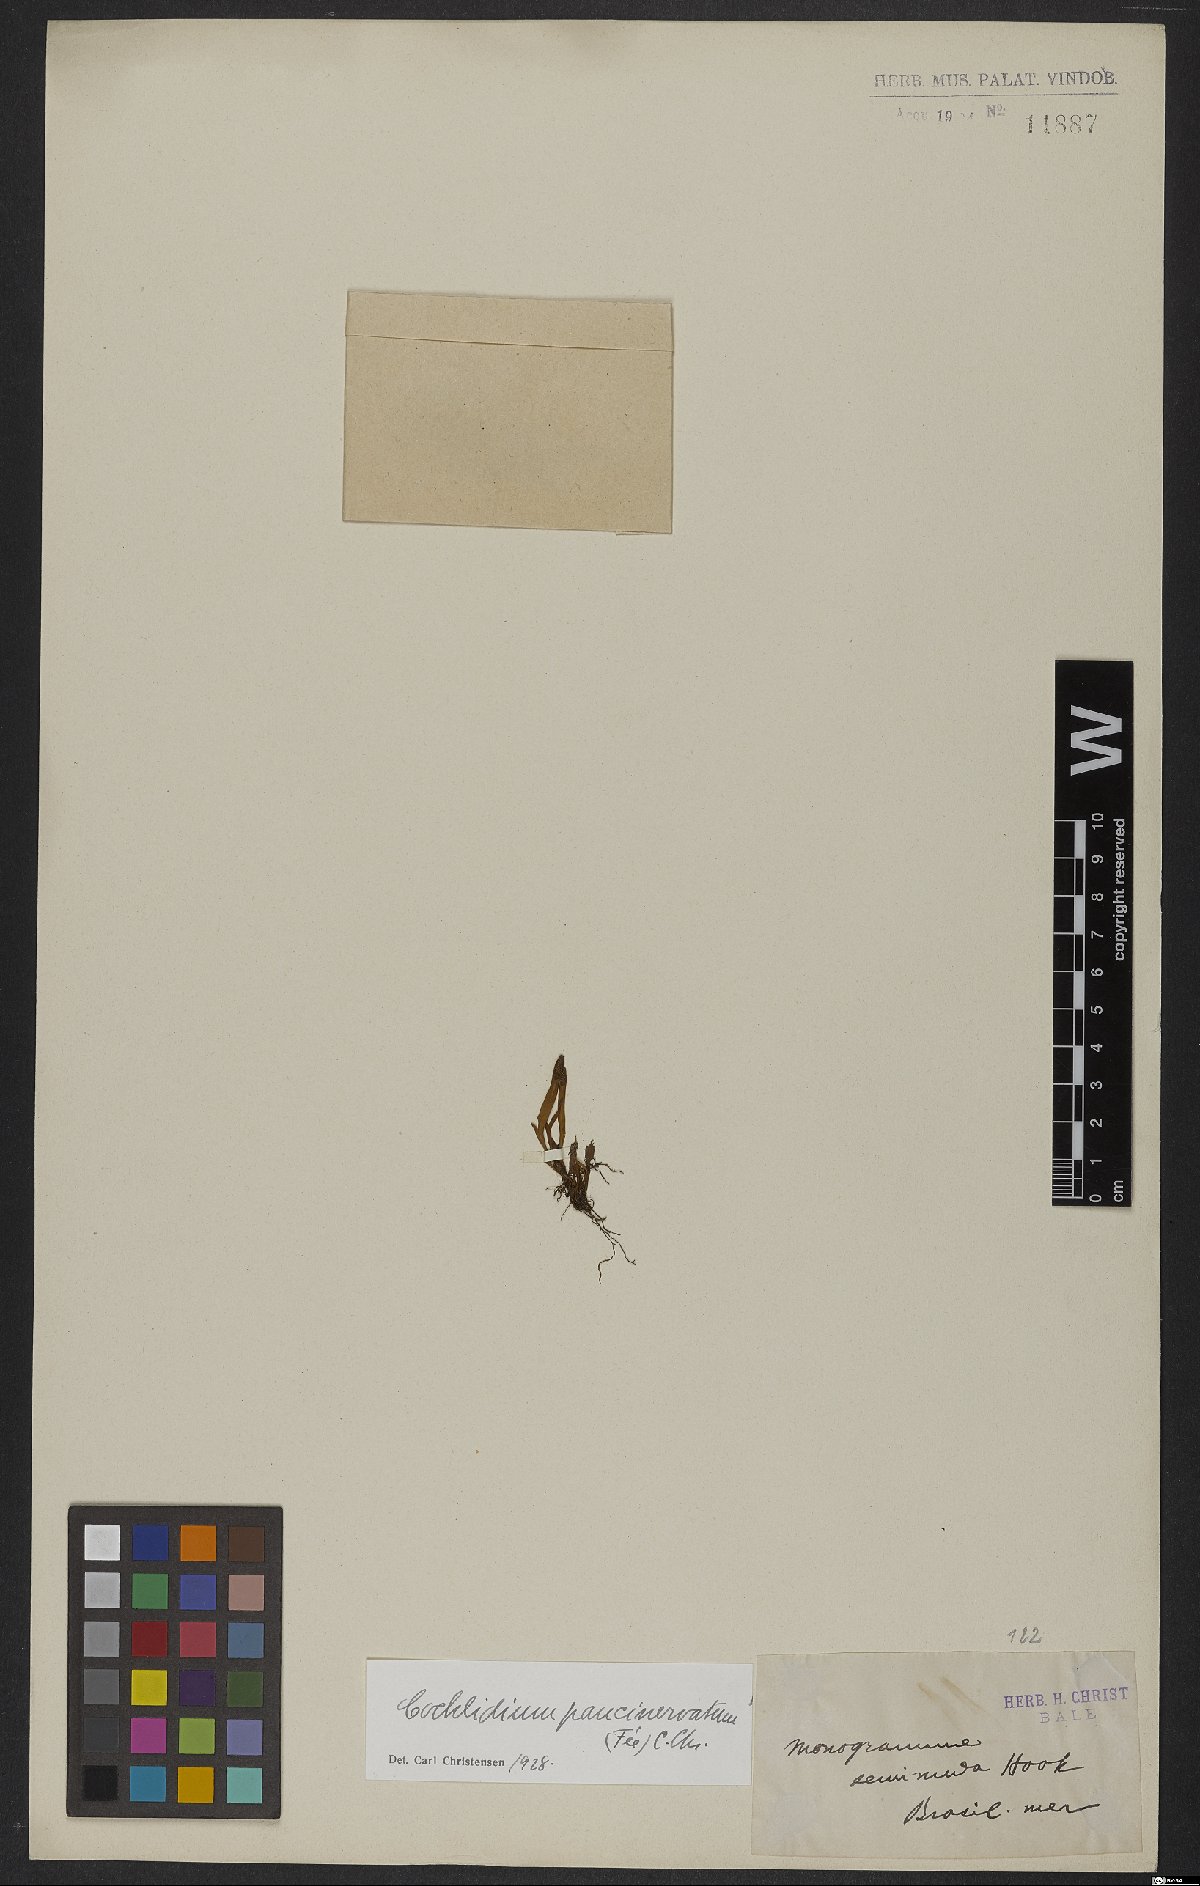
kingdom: Plantae
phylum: Tracheophyta
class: Polypodiopsida
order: Polypodiales
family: Polypodiaceae
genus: Cochlidium
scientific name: Cochlidium punctatum
